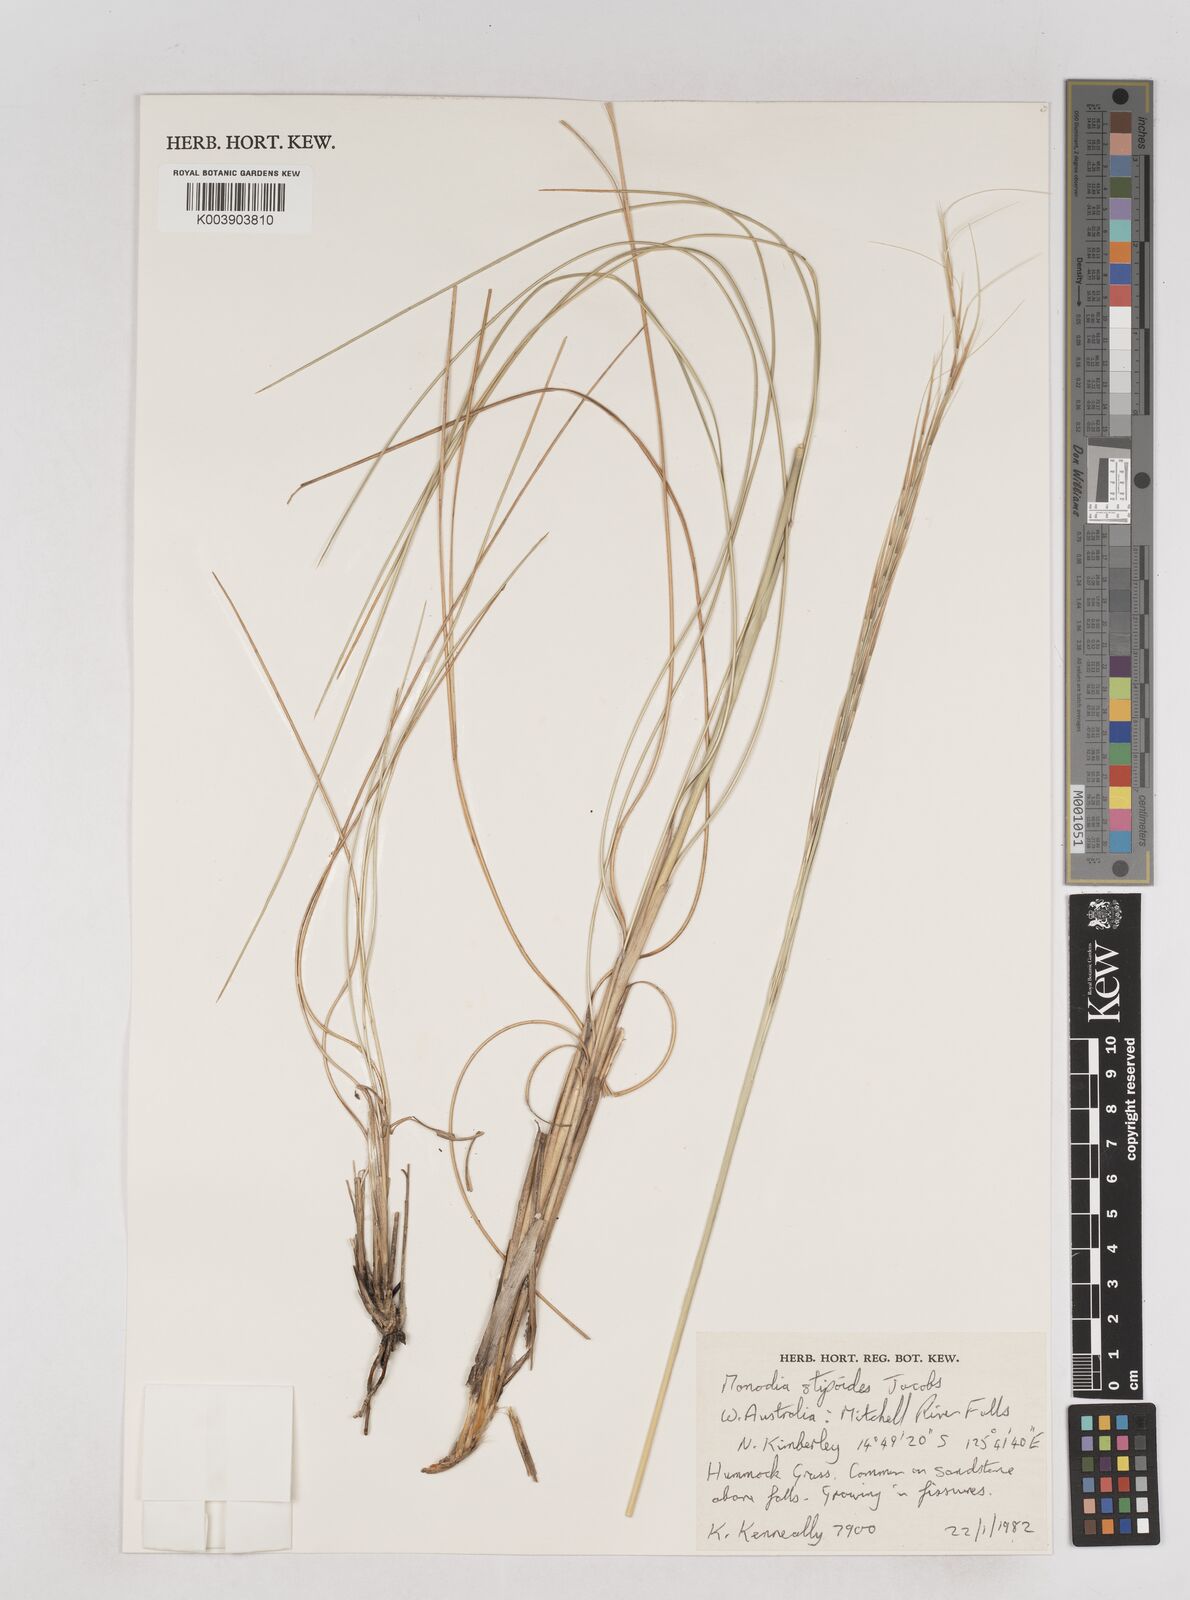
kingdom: Plantae
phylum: Tracheophyta
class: Liliopsida
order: Poales
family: Poaceae
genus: Triodia
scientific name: Triodia stipoides
